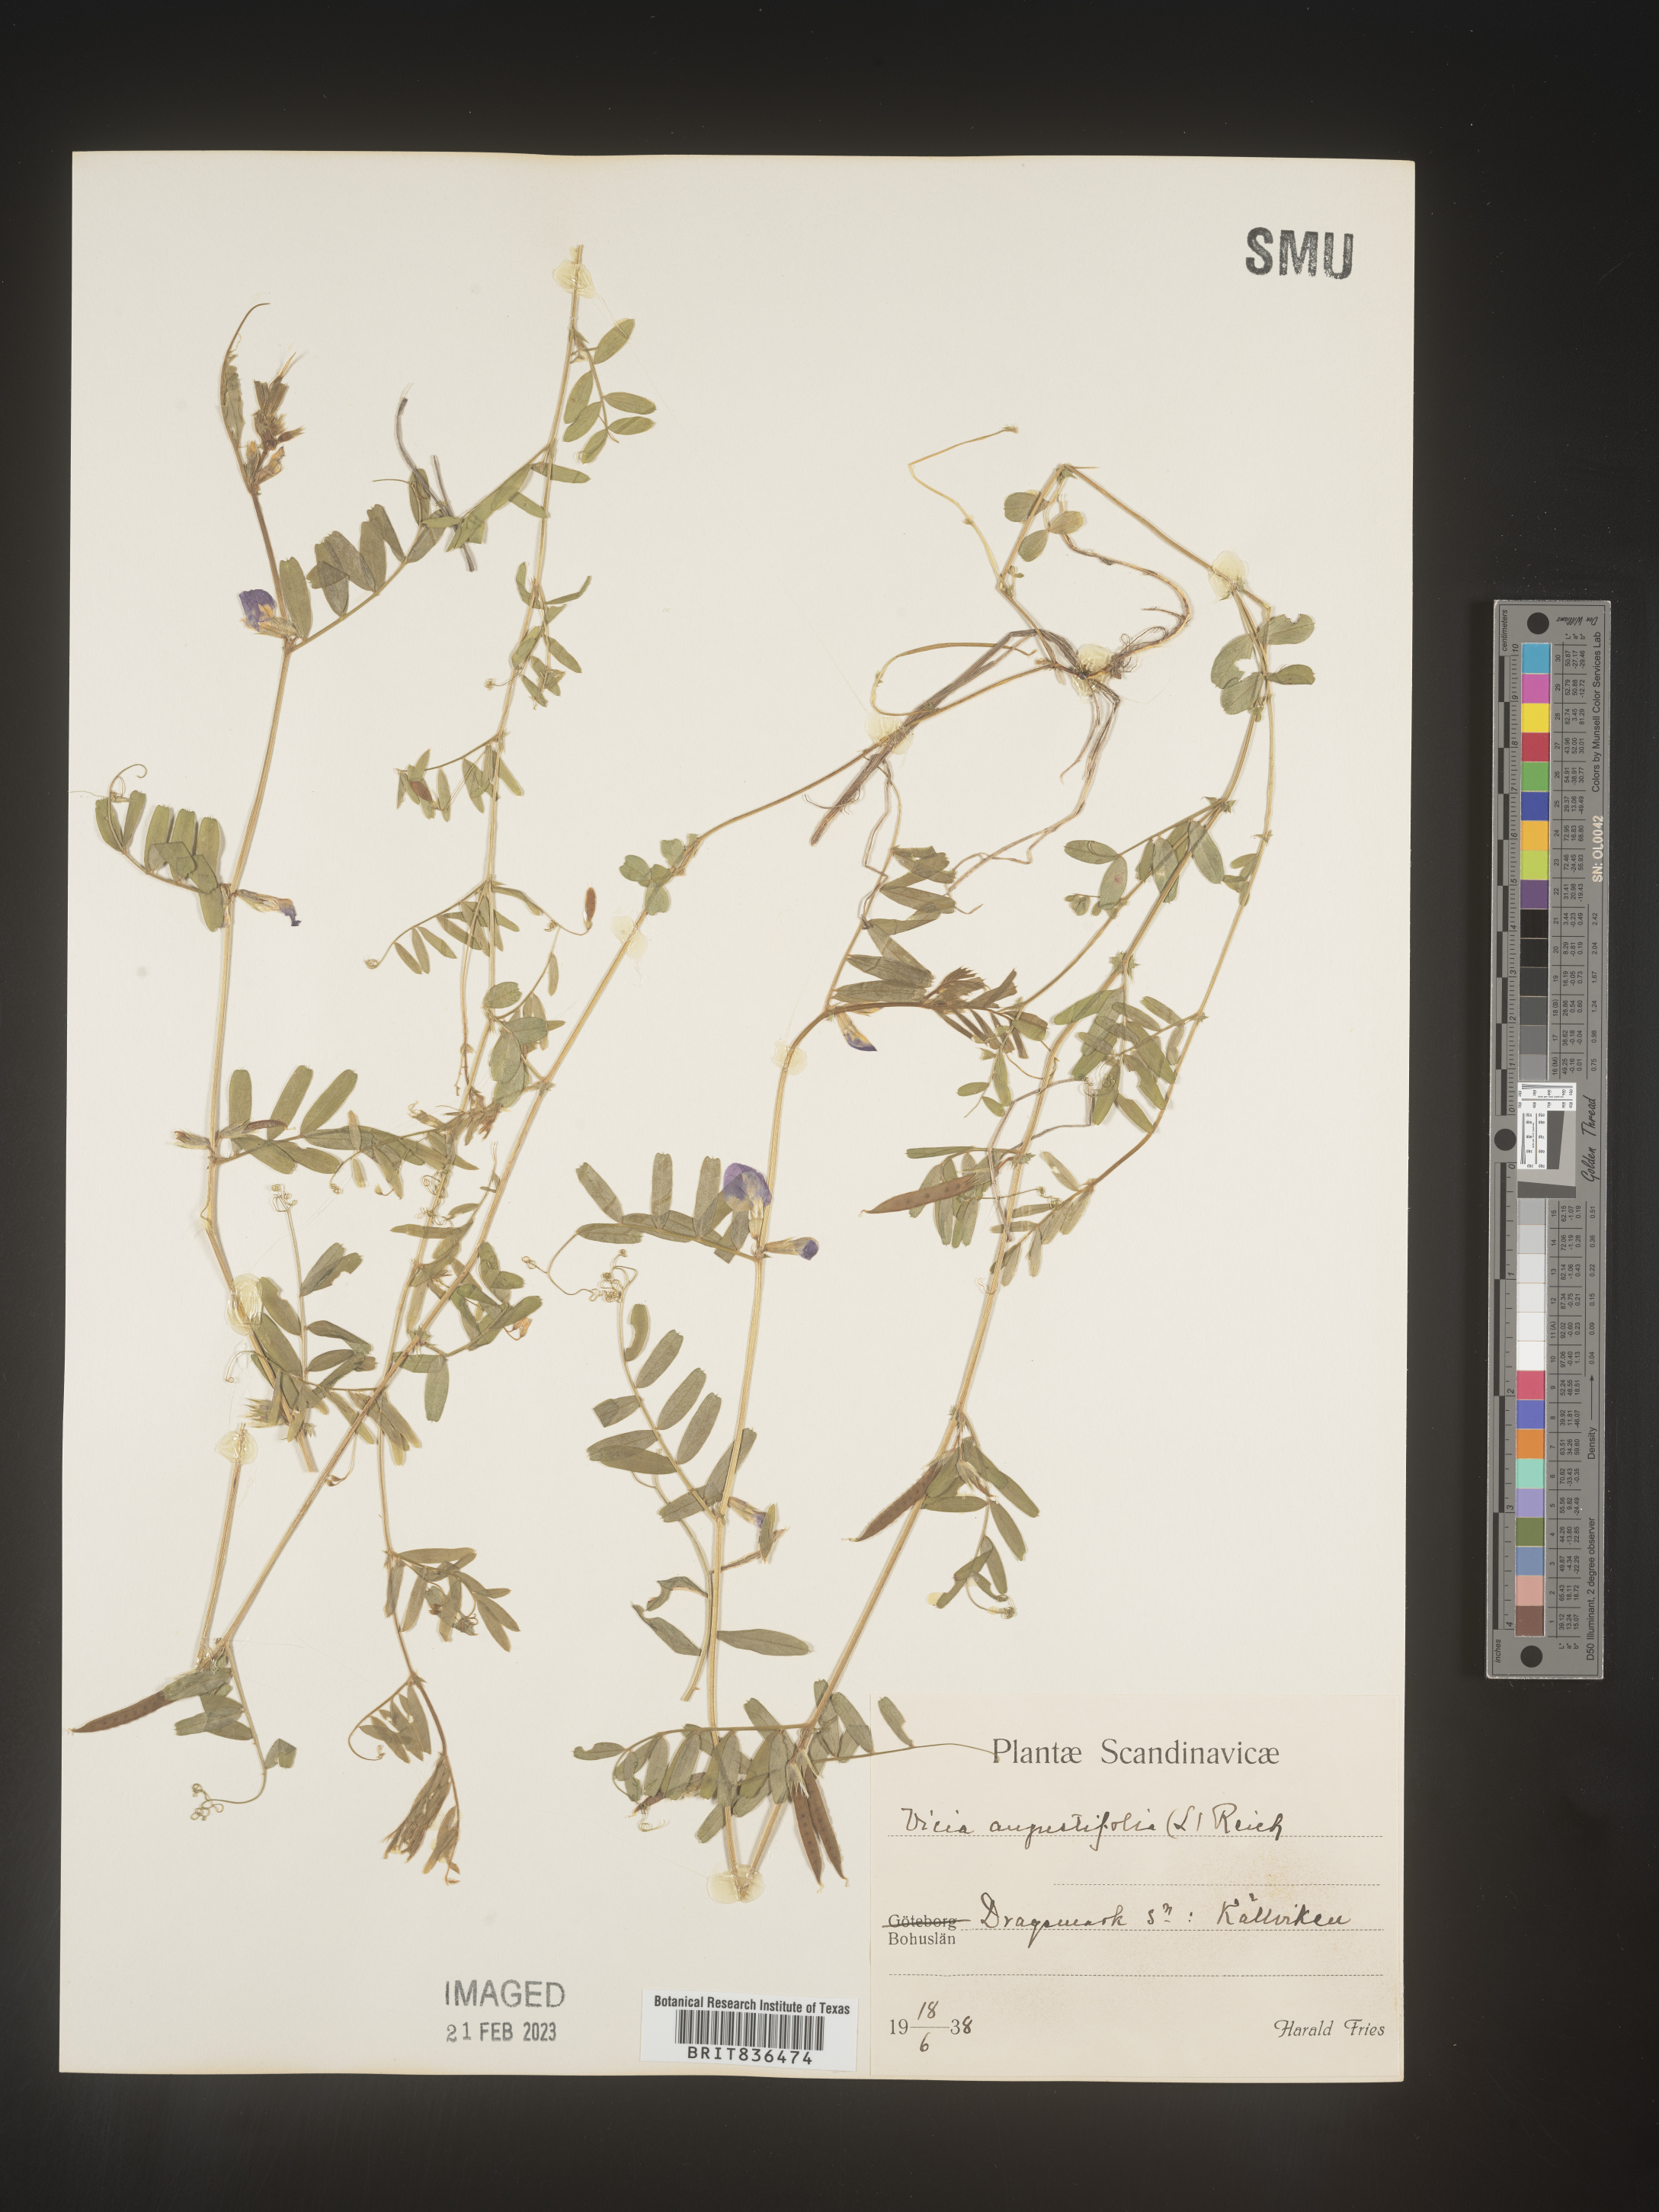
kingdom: Plantae
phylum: Tracheophyta
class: Magnoliopsida
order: Fabales
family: Fabaceae
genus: Vicia
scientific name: Vicia
